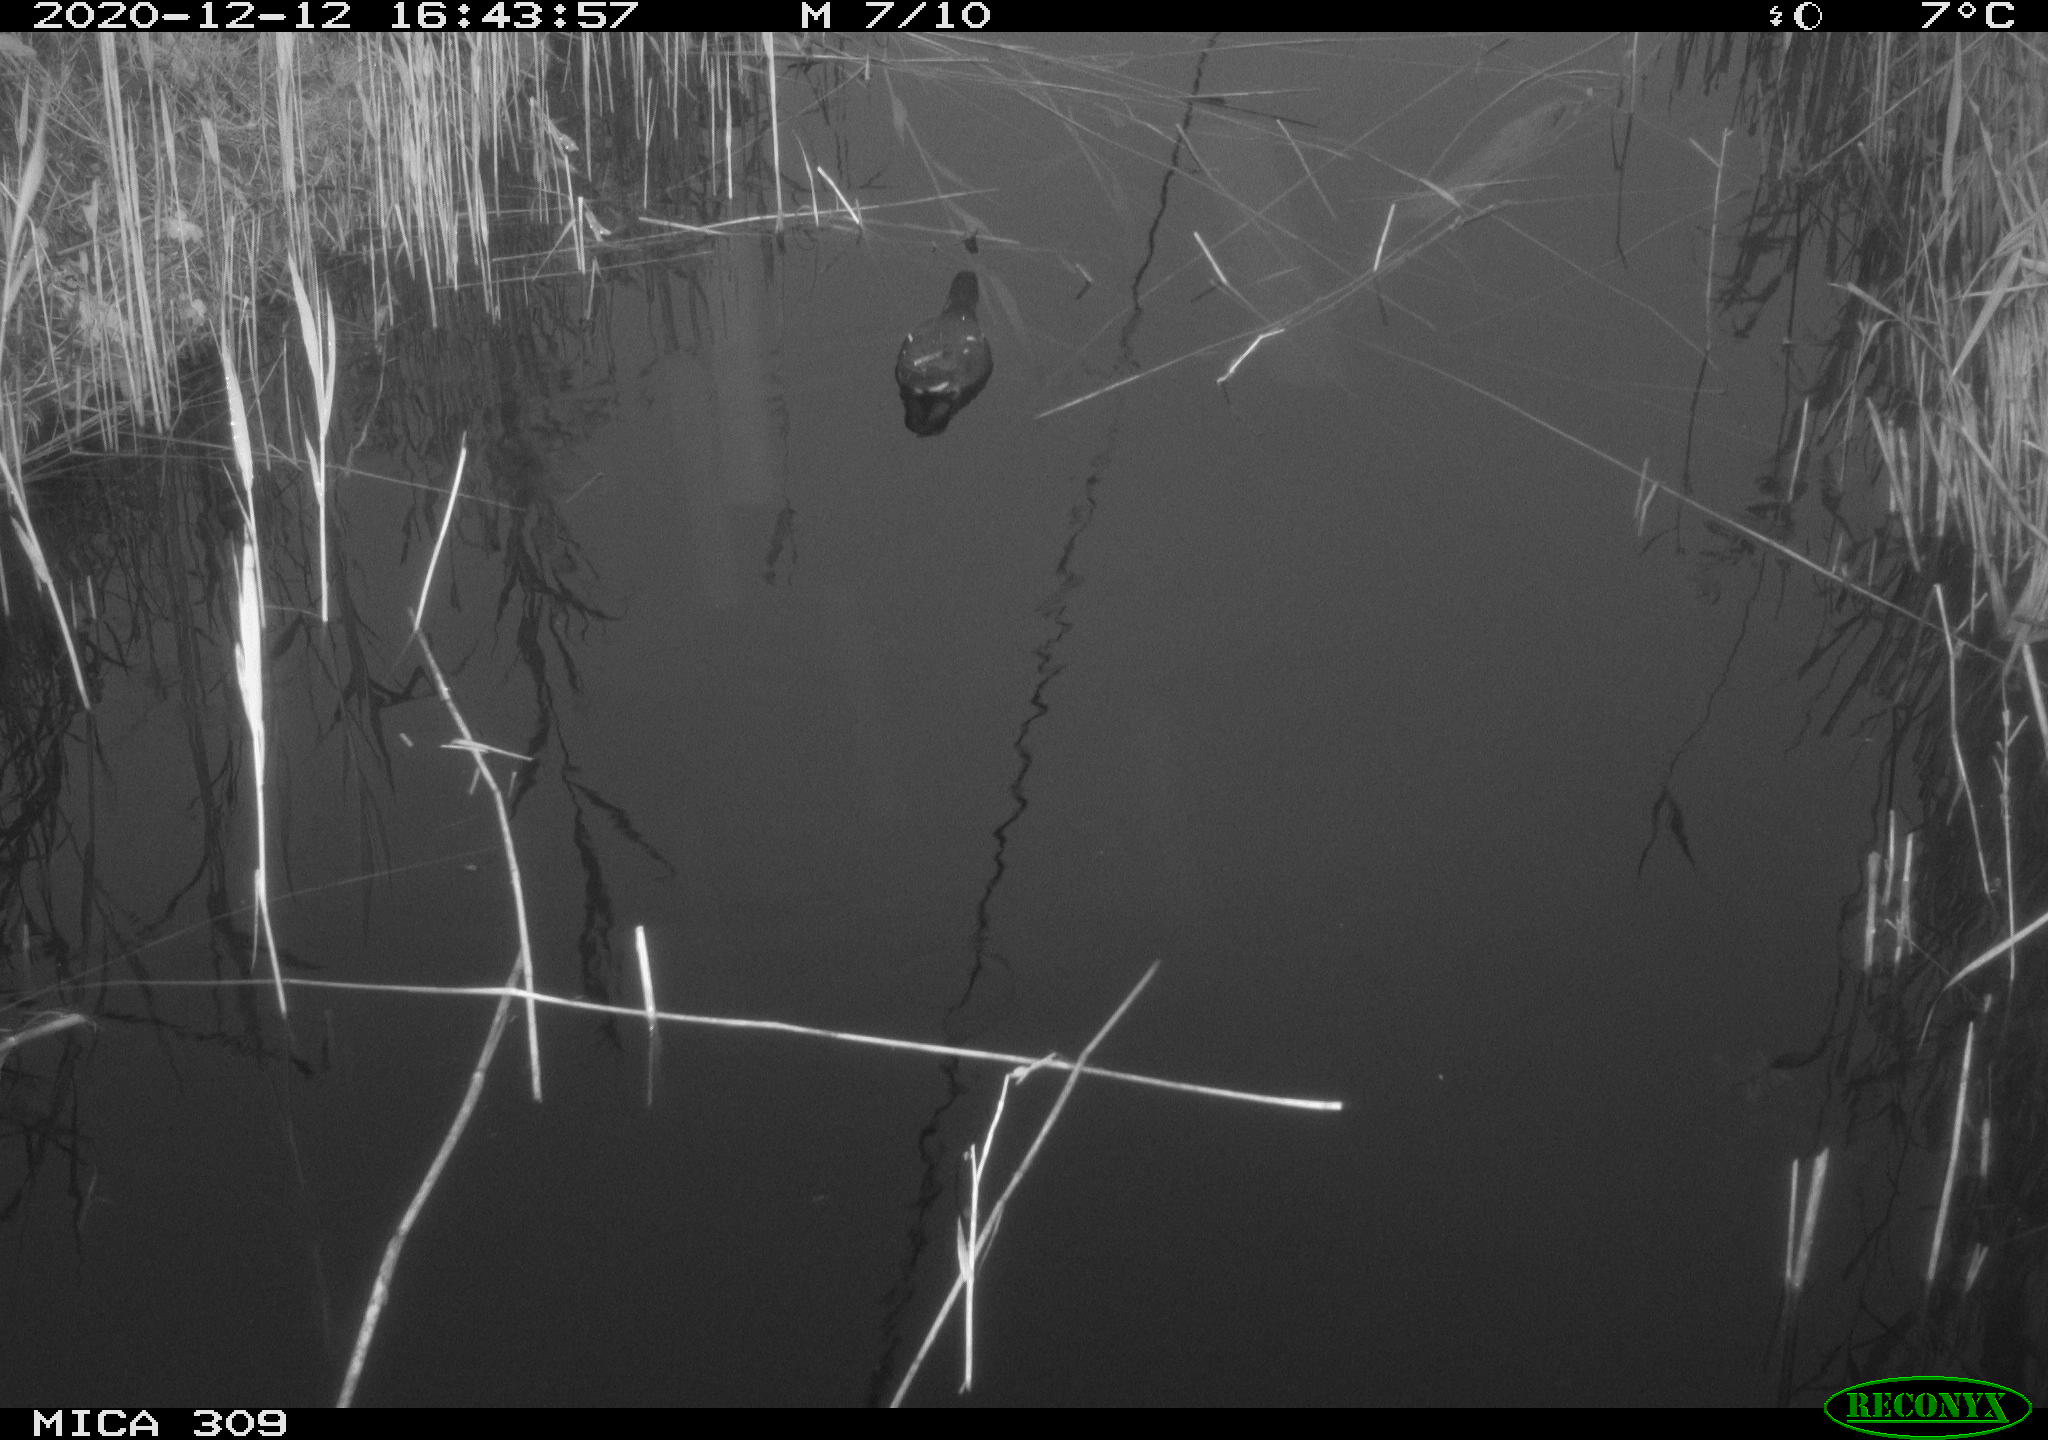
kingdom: Animalia
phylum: Chordata
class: Aves
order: Gruiformes
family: Rallidae
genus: Gallinula
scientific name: Gallinula chloropus
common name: Common moorhen
